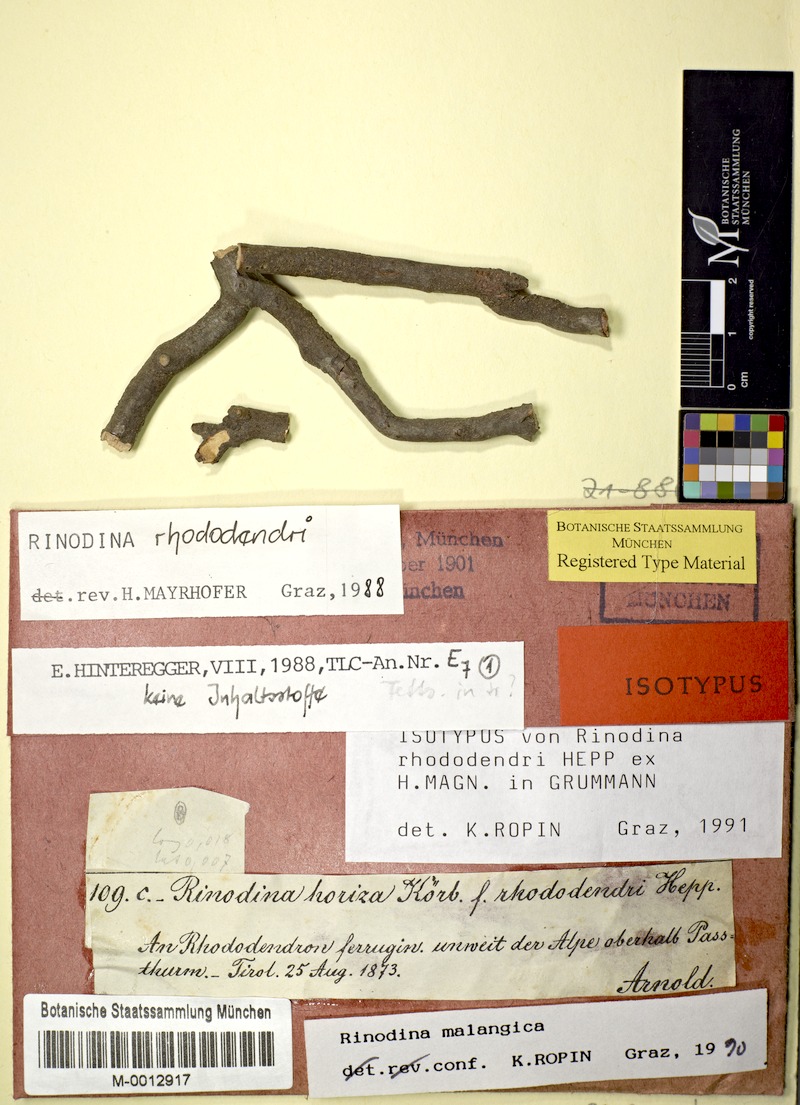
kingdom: Fungi
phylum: Ascomycota
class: Lecanoromycetes
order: Caliciales
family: Physciaceae
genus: Rinodina
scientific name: Rinodina malangica
